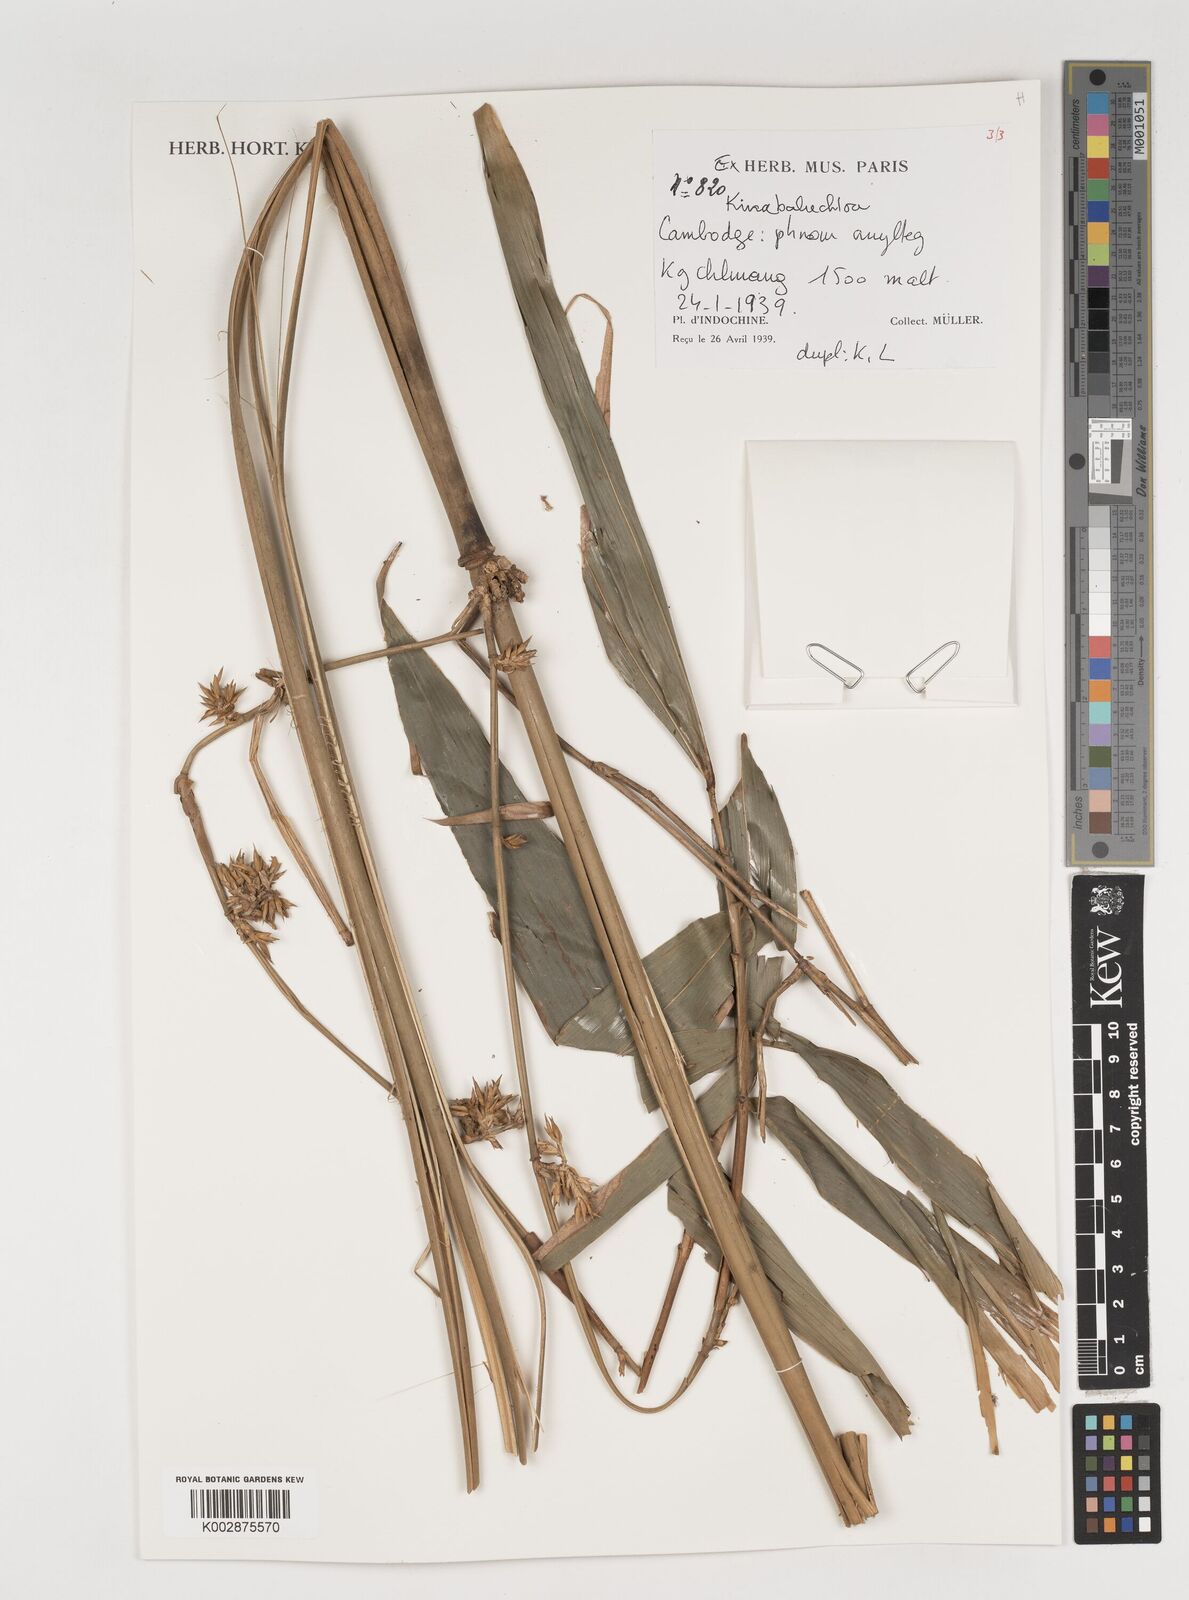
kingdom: Plantae
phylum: Tracheophyta
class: Liliopsida
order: Poales
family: Poaceae
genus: Kinabaluchloa
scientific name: Kinabaluchloa
